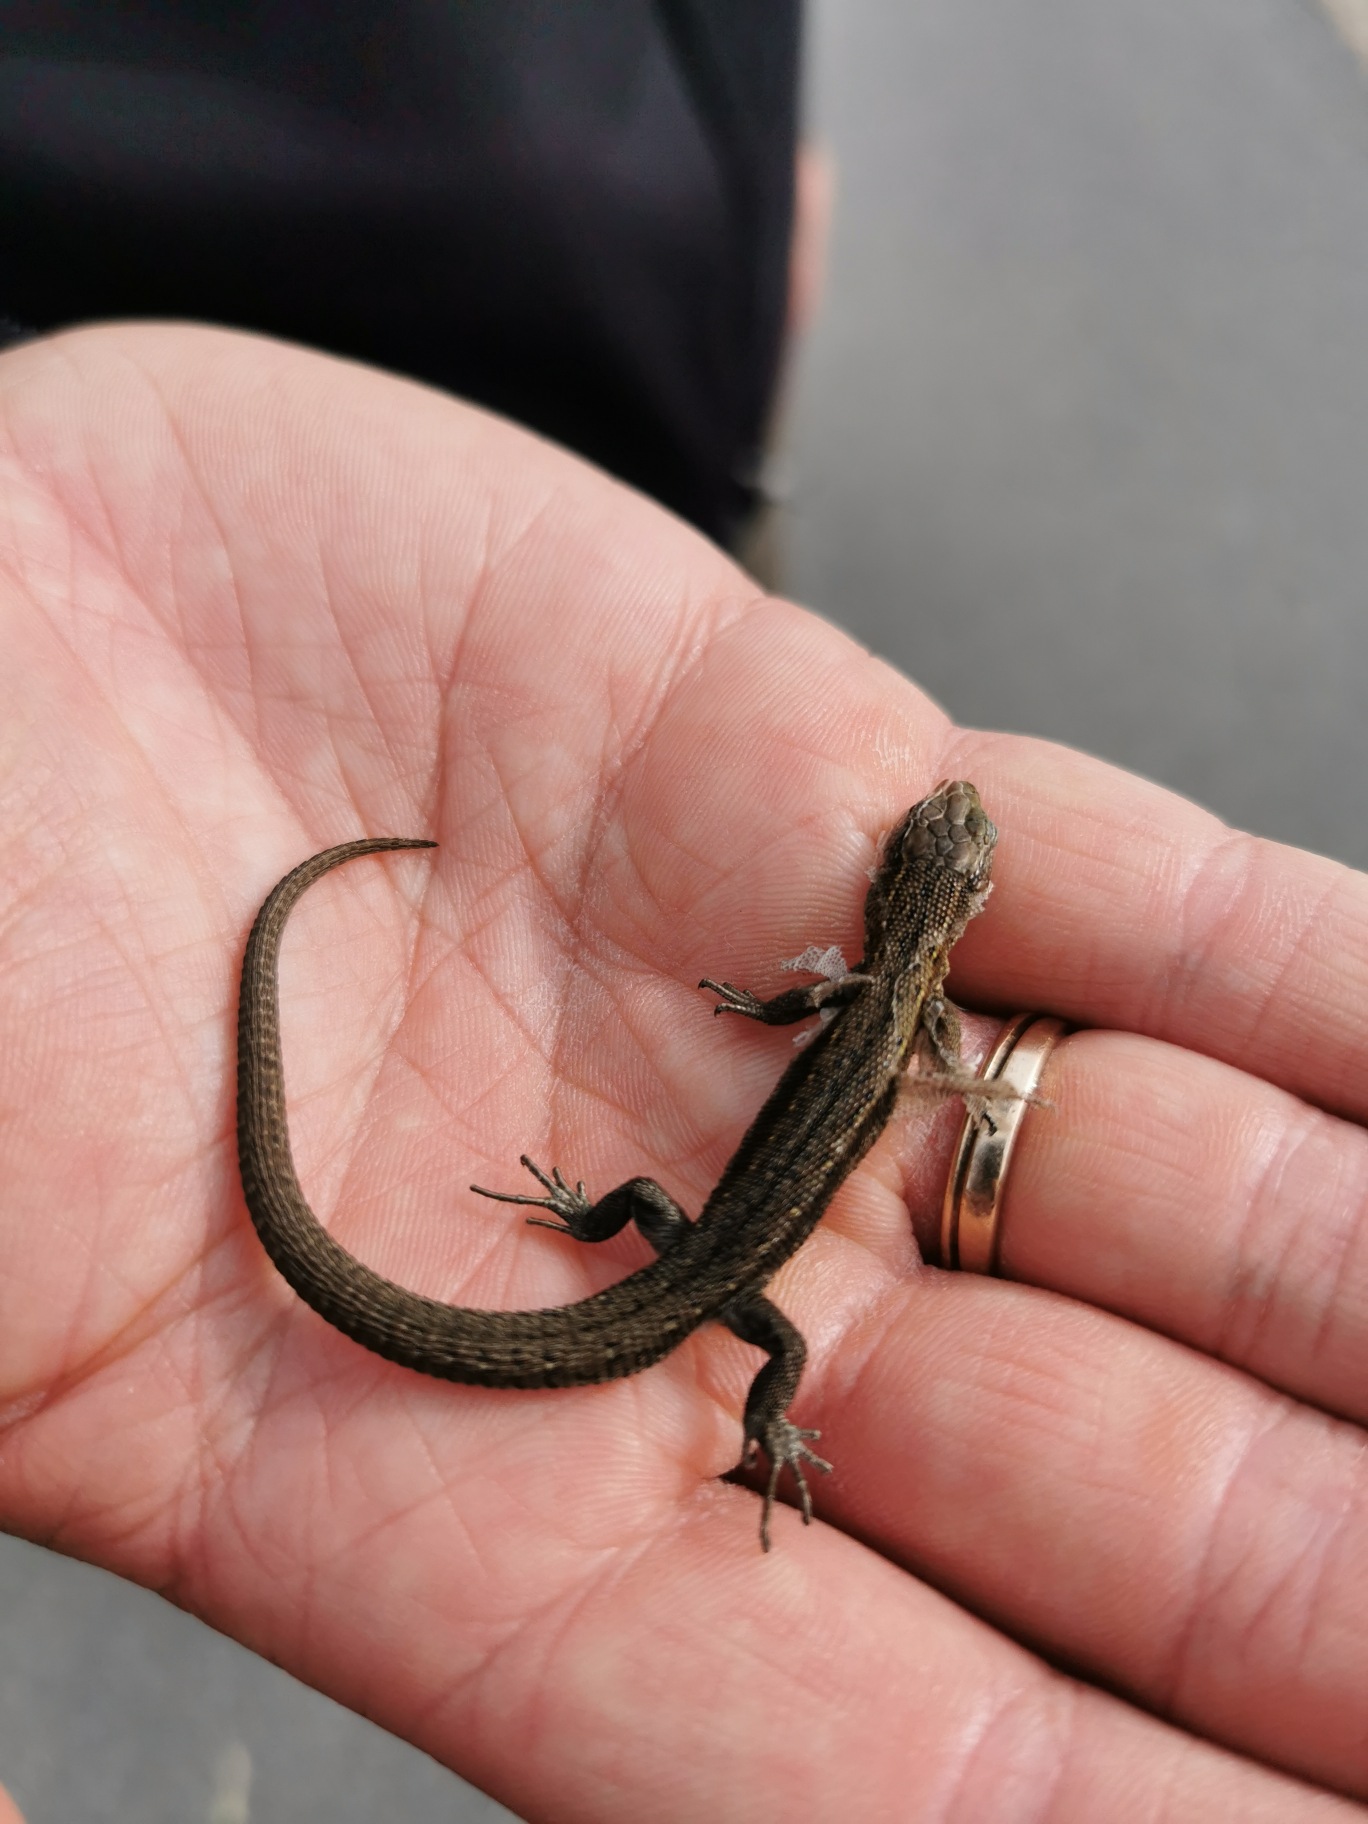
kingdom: Animalia
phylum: Chordata
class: Squamata
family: Lacertidae
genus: Zootoca
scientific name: Zootoca vivipara
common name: Skovfirben
